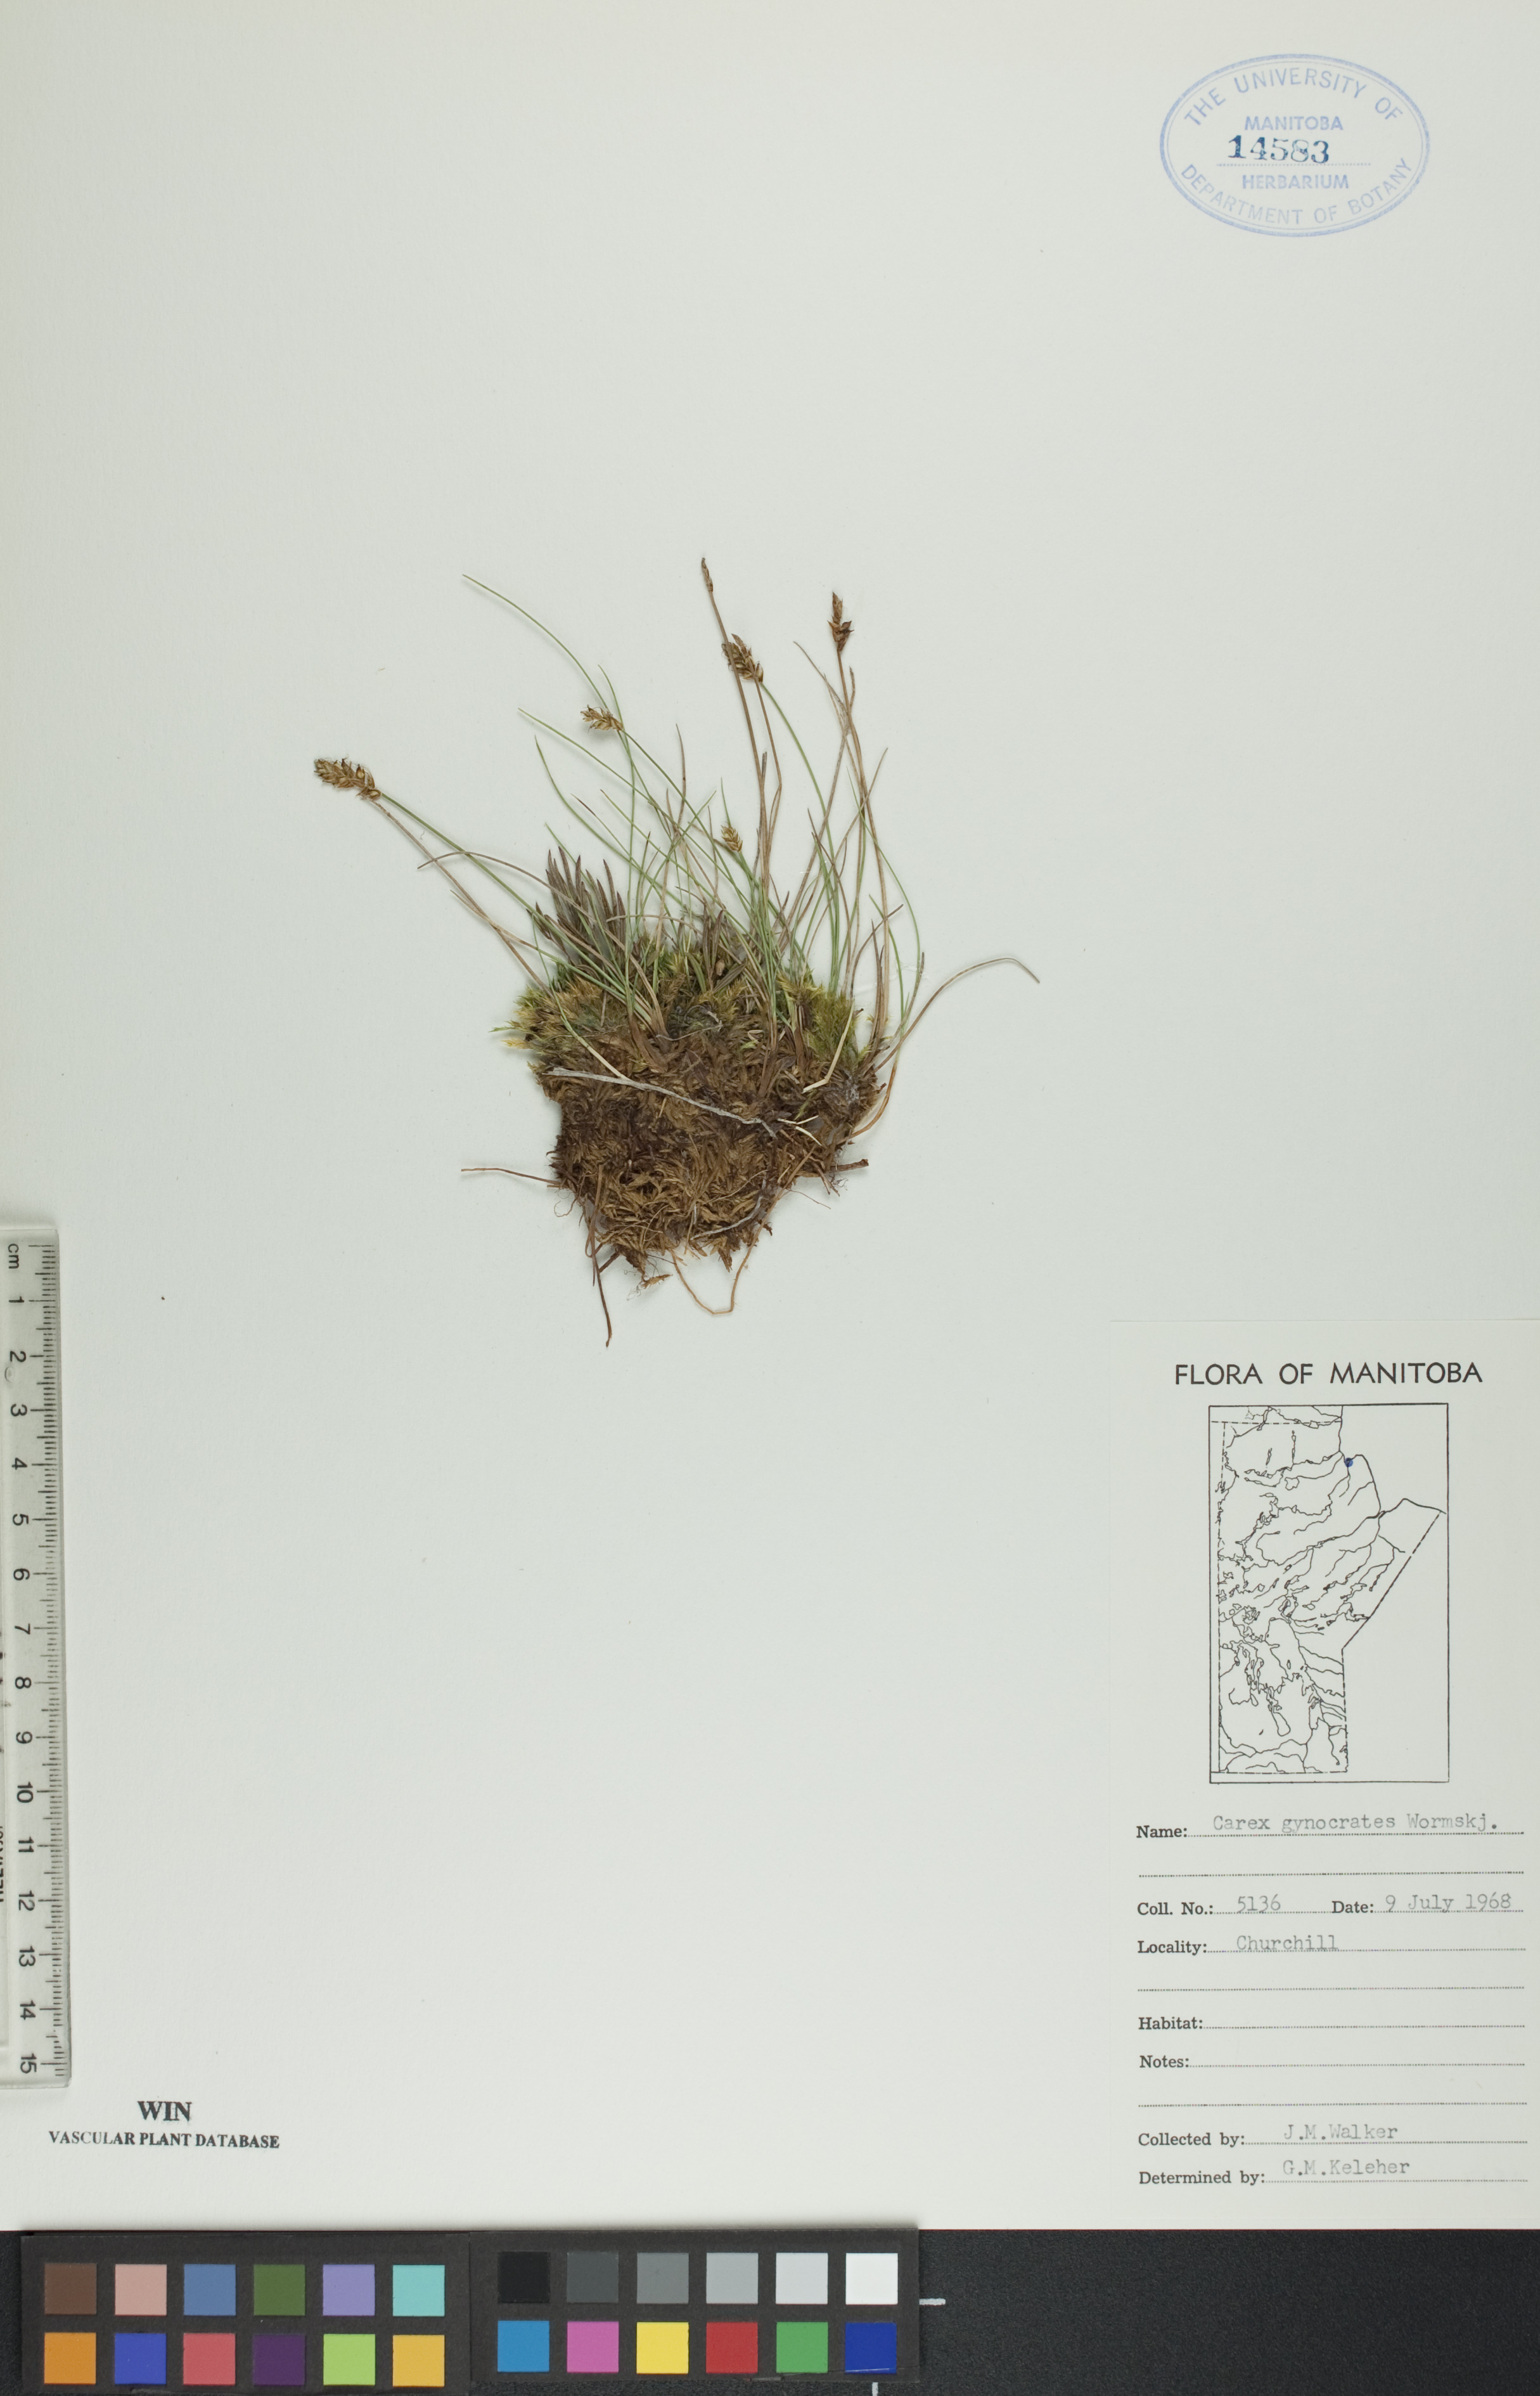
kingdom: Plantae
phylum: Tracheophyta
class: Liliopsida
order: Poales
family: Cyperaceae
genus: Carex
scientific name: Carex nardina
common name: Nard sedge
